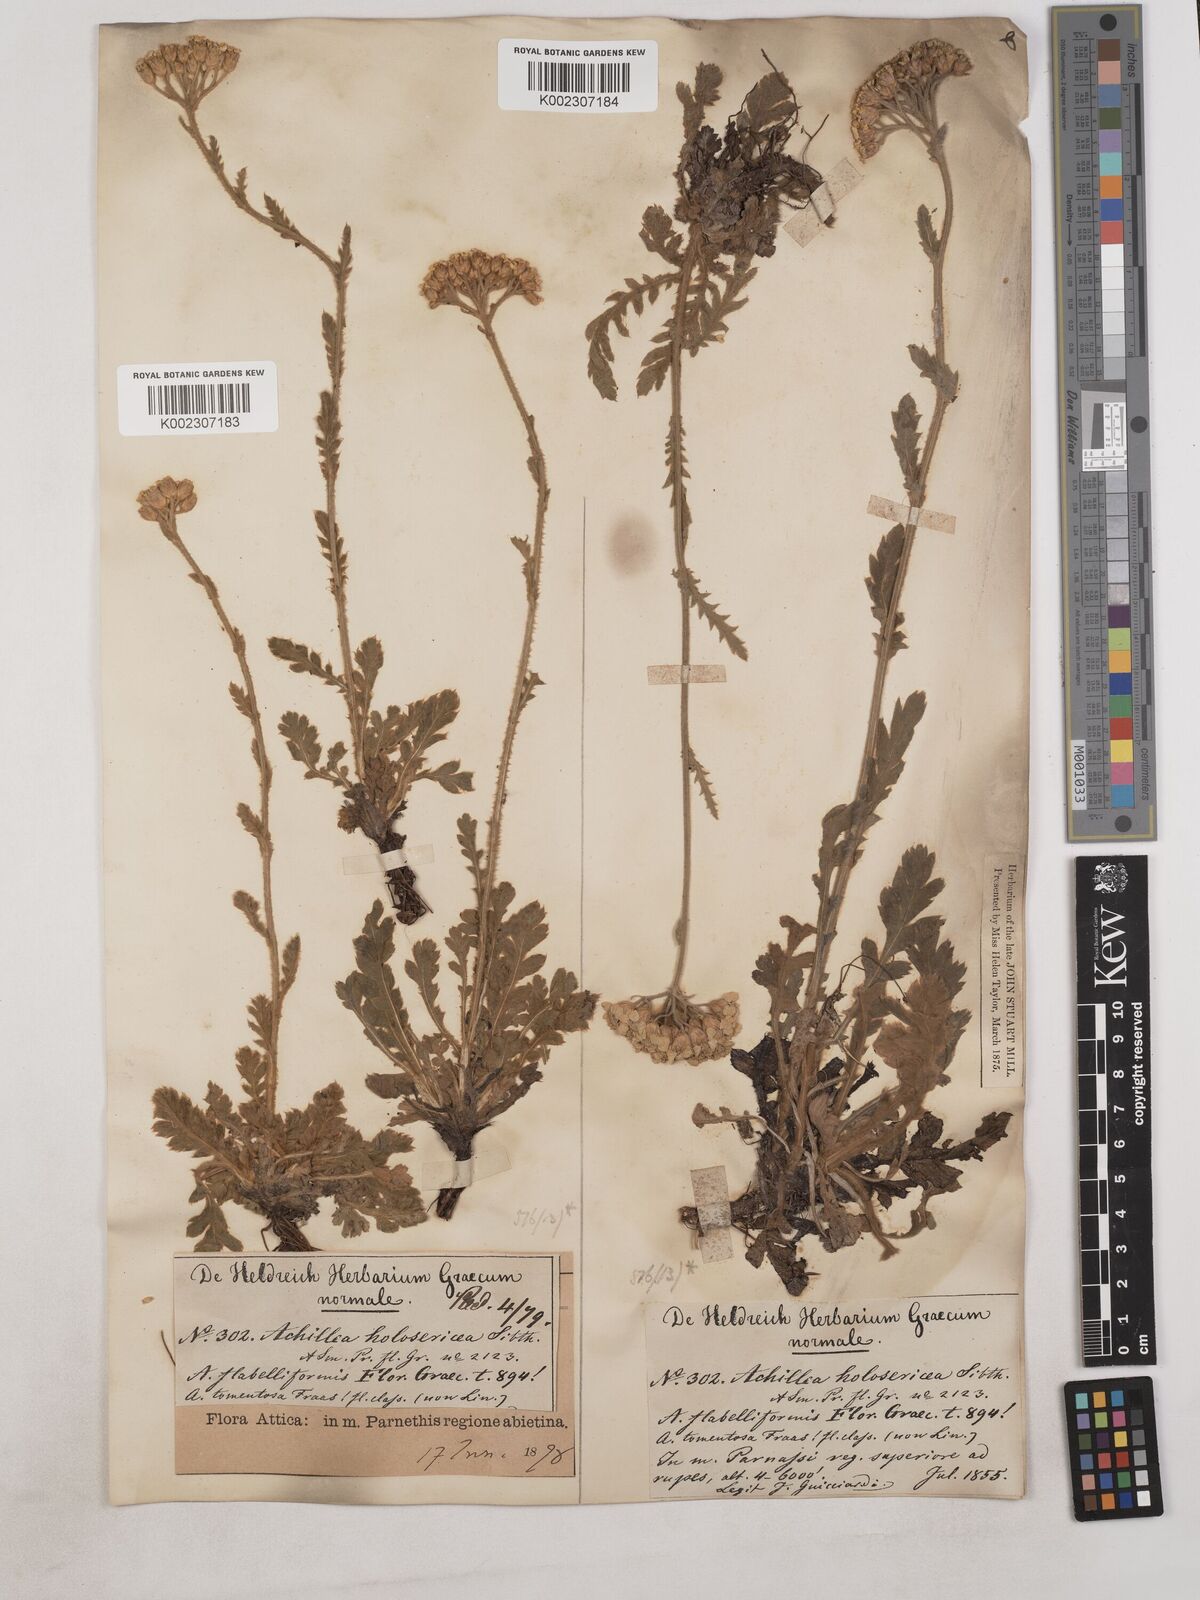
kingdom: Plantae
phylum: Tracheophyta
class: Magnoliopsida
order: Asterales
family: Asteraceae
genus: Achillea
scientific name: Achillea holosericea
